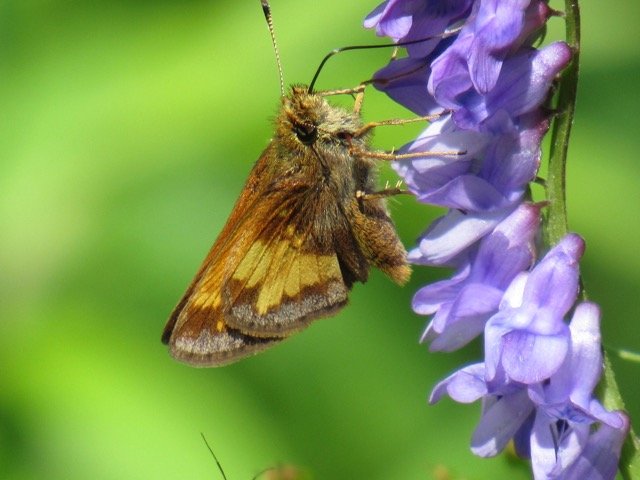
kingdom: Animalia
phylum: Arthropoda
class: Insecta
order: Lepidoptera
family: Hesperiidae
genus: Lon
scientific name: Lon hobomok
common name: Hobomok Skipper
